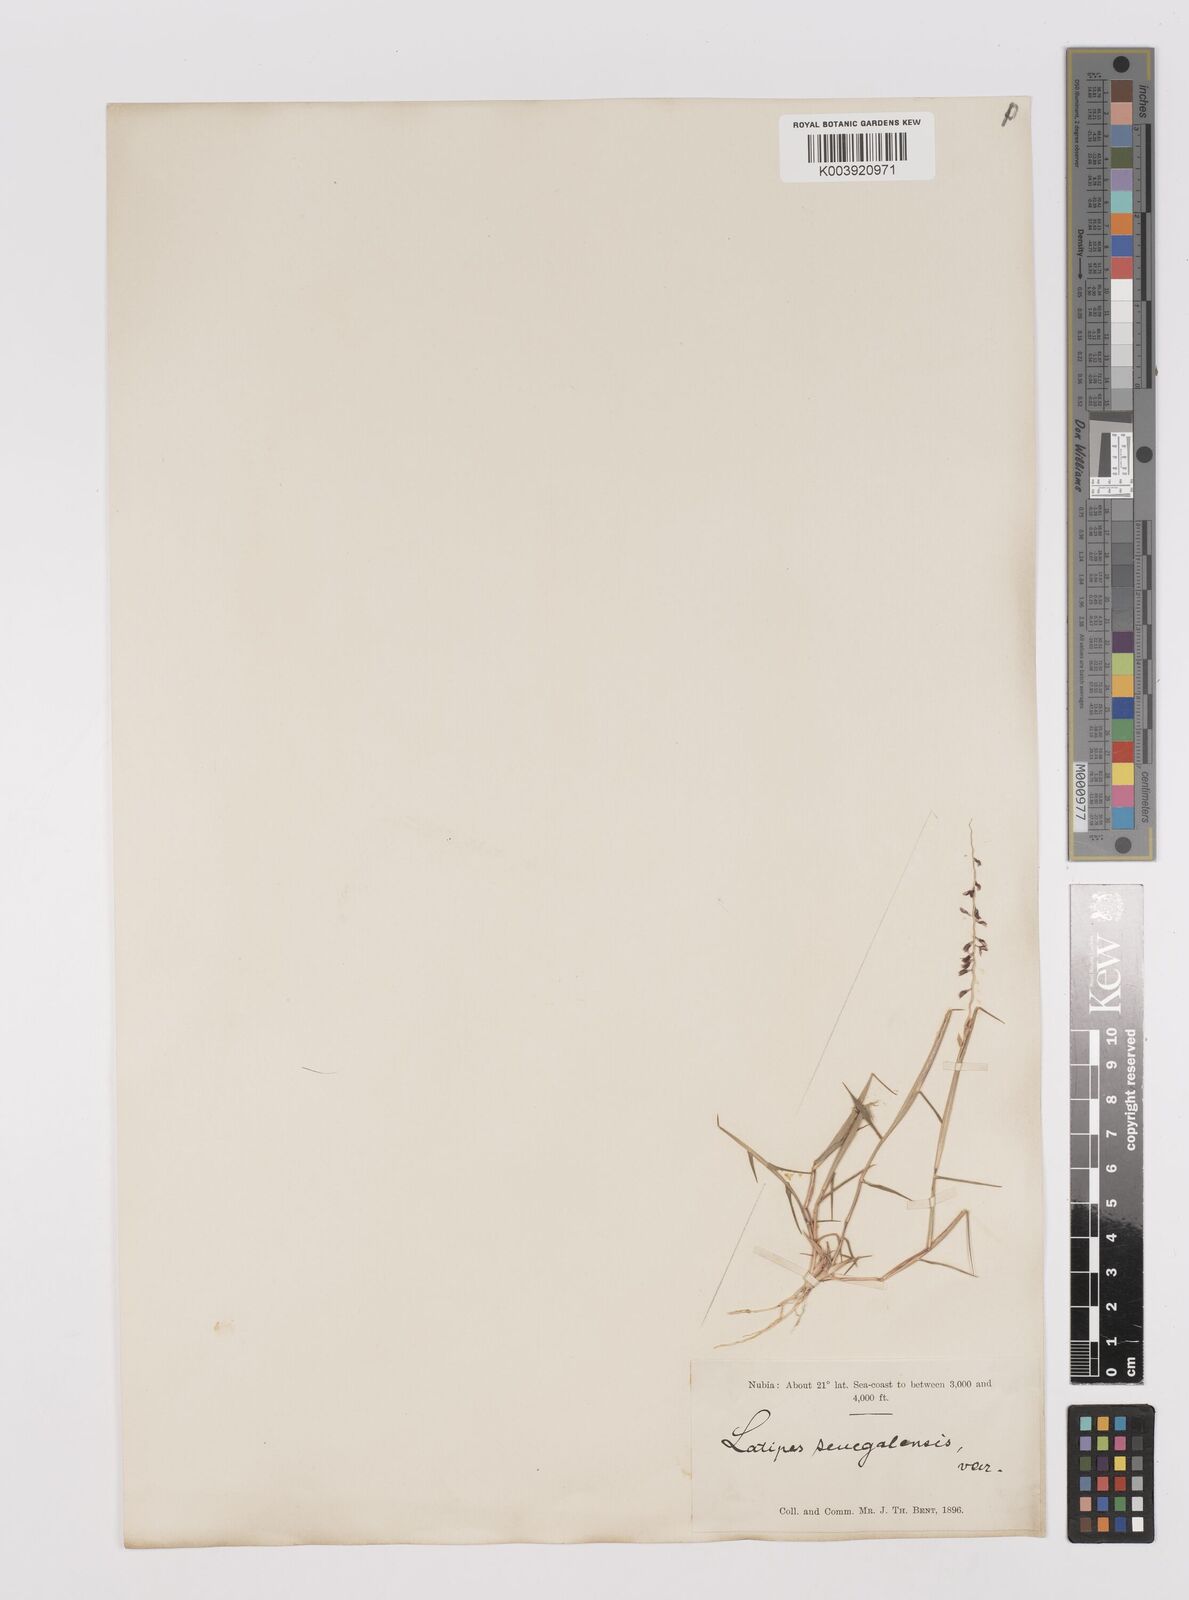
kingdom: Plantae
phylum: Tracheophyta
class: Liliopsida
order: Poales
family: Poaceae
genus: Leptothrium
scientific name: Leptothrium senegalense
